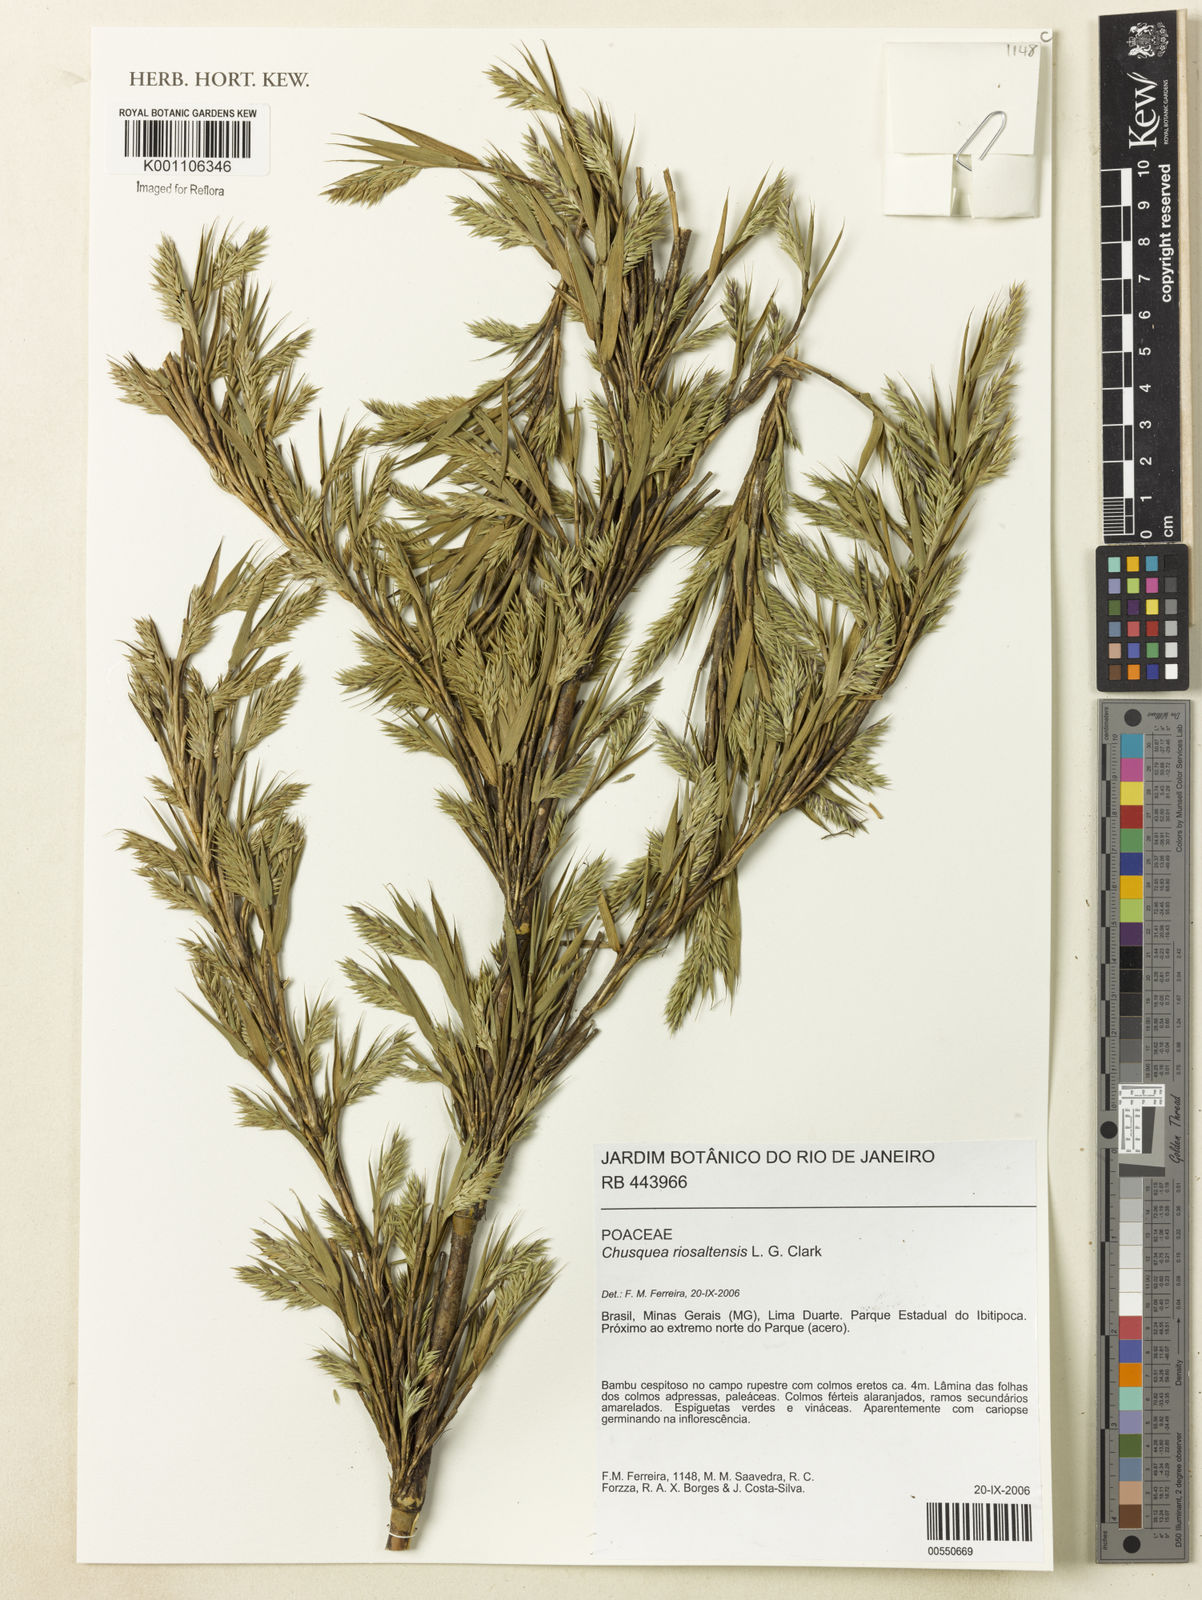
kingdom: Plantae
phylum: Tracheophyta
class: Liliopsida
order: Poales
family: Poaceae
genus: Chusquea
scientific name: Chusquea riosaltensis
